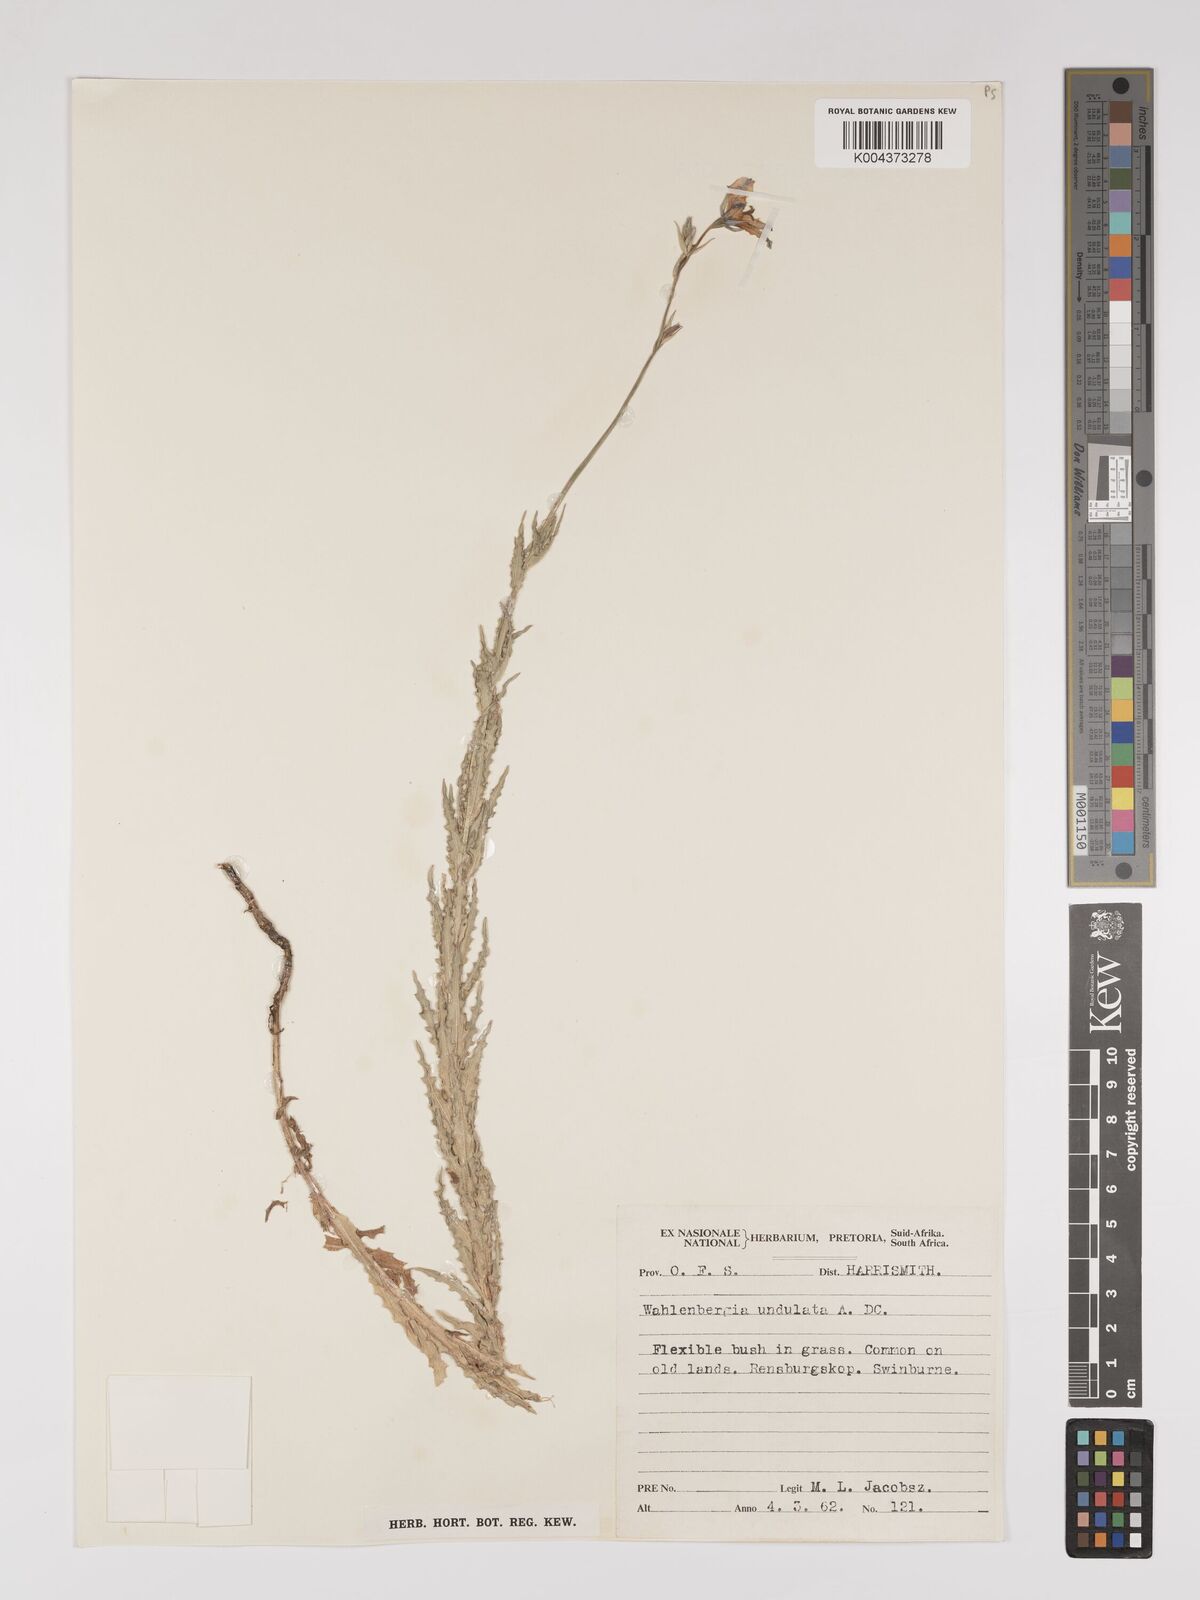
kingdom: Plantae
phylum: Tracheophyta
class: Magnoliopsida
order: Asterales
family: Campanulaceae
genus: Wahlenbergia
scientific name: Wahlenbergia undulata
